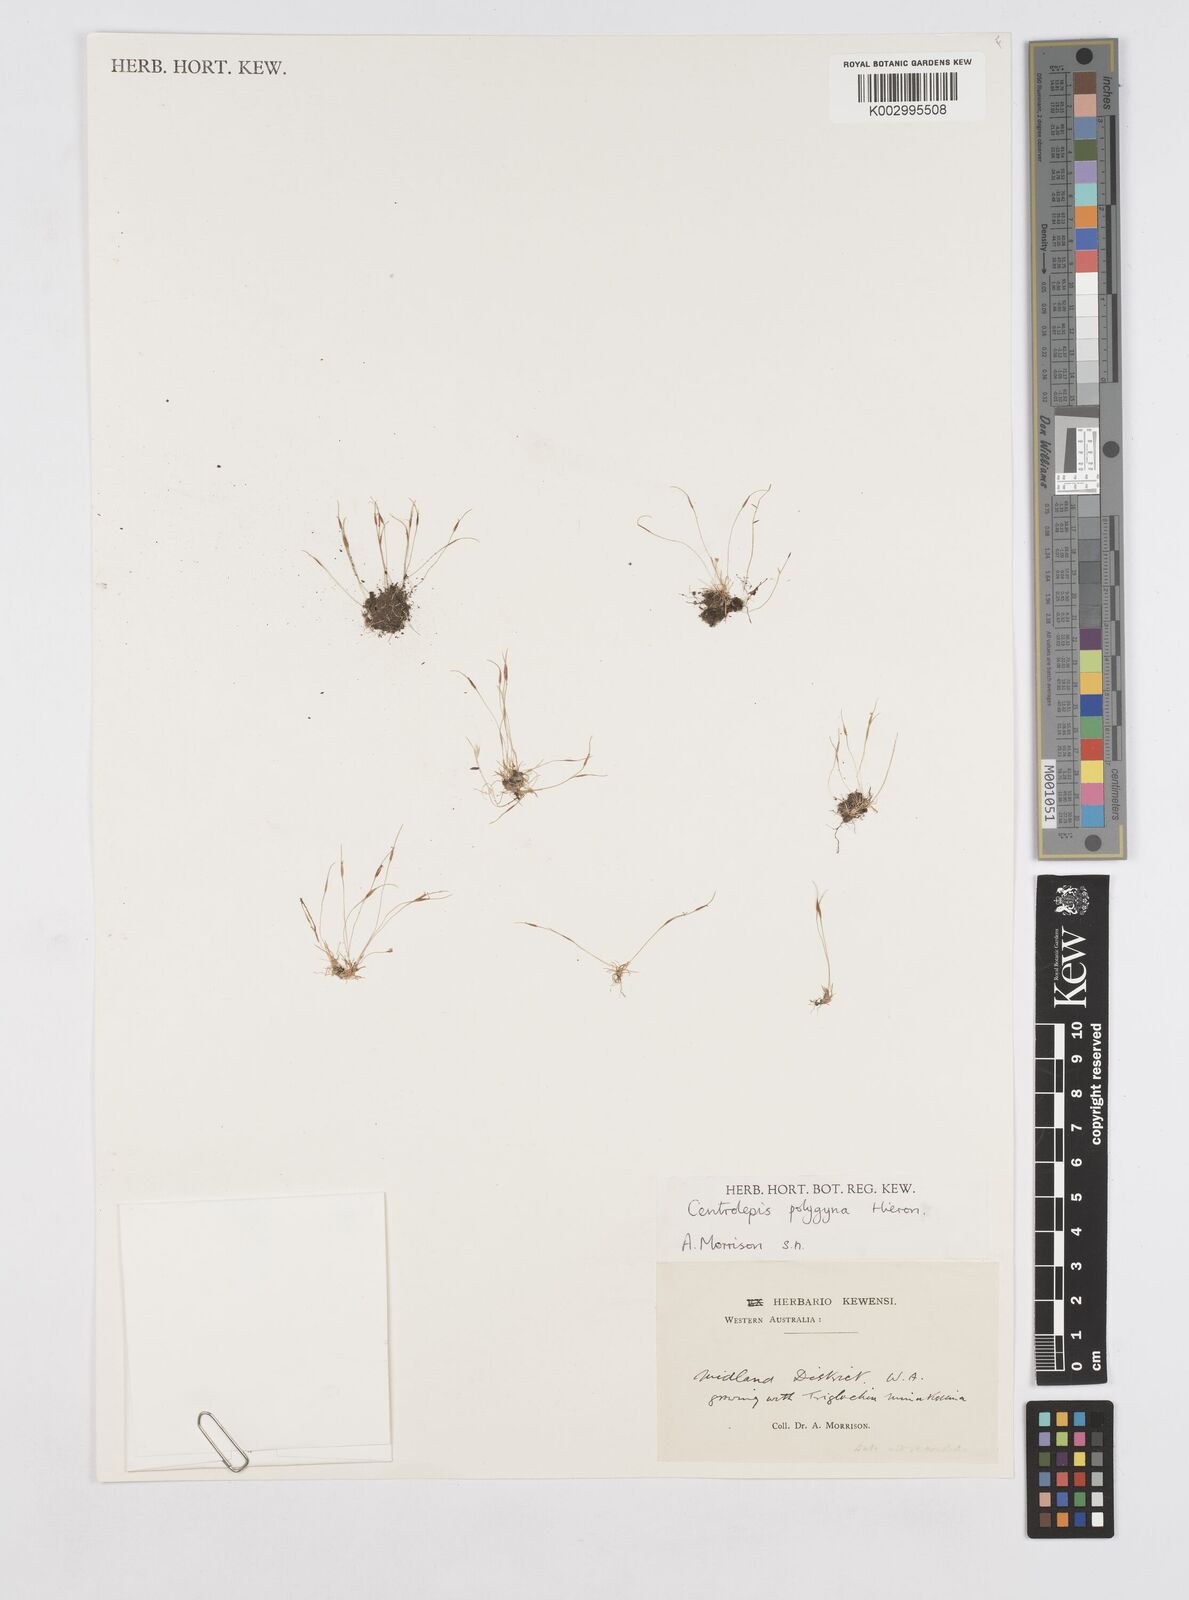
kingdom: Plantae
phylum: Tracheophyta
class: Liliopsida
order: Poales
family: Restionaceae
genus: Centrolepis
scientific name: Centrolepis polygyna
